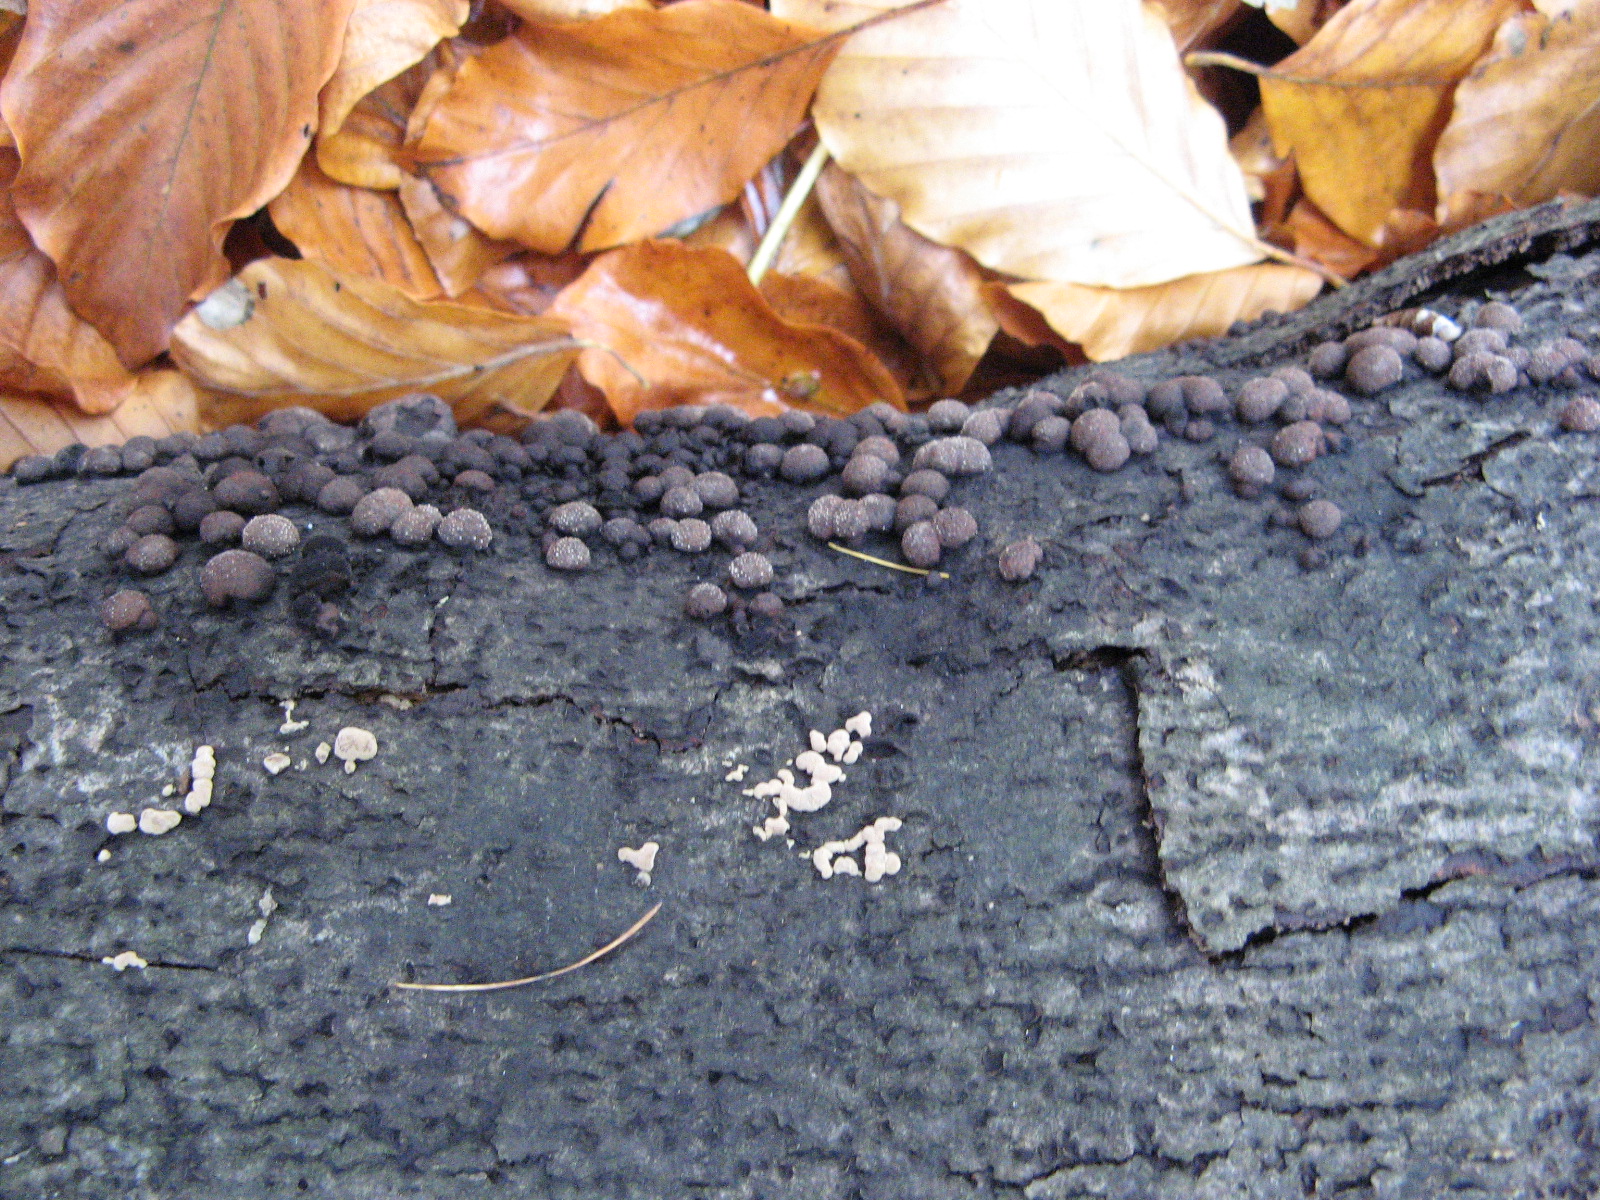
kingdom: Fungi
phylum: Ascomycota
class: Sordariomycetes
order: Xylariales
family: Hypoxylaceae
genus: Hypoxylon
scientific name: Hypoxylon fragiforme
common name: kuljordbær
